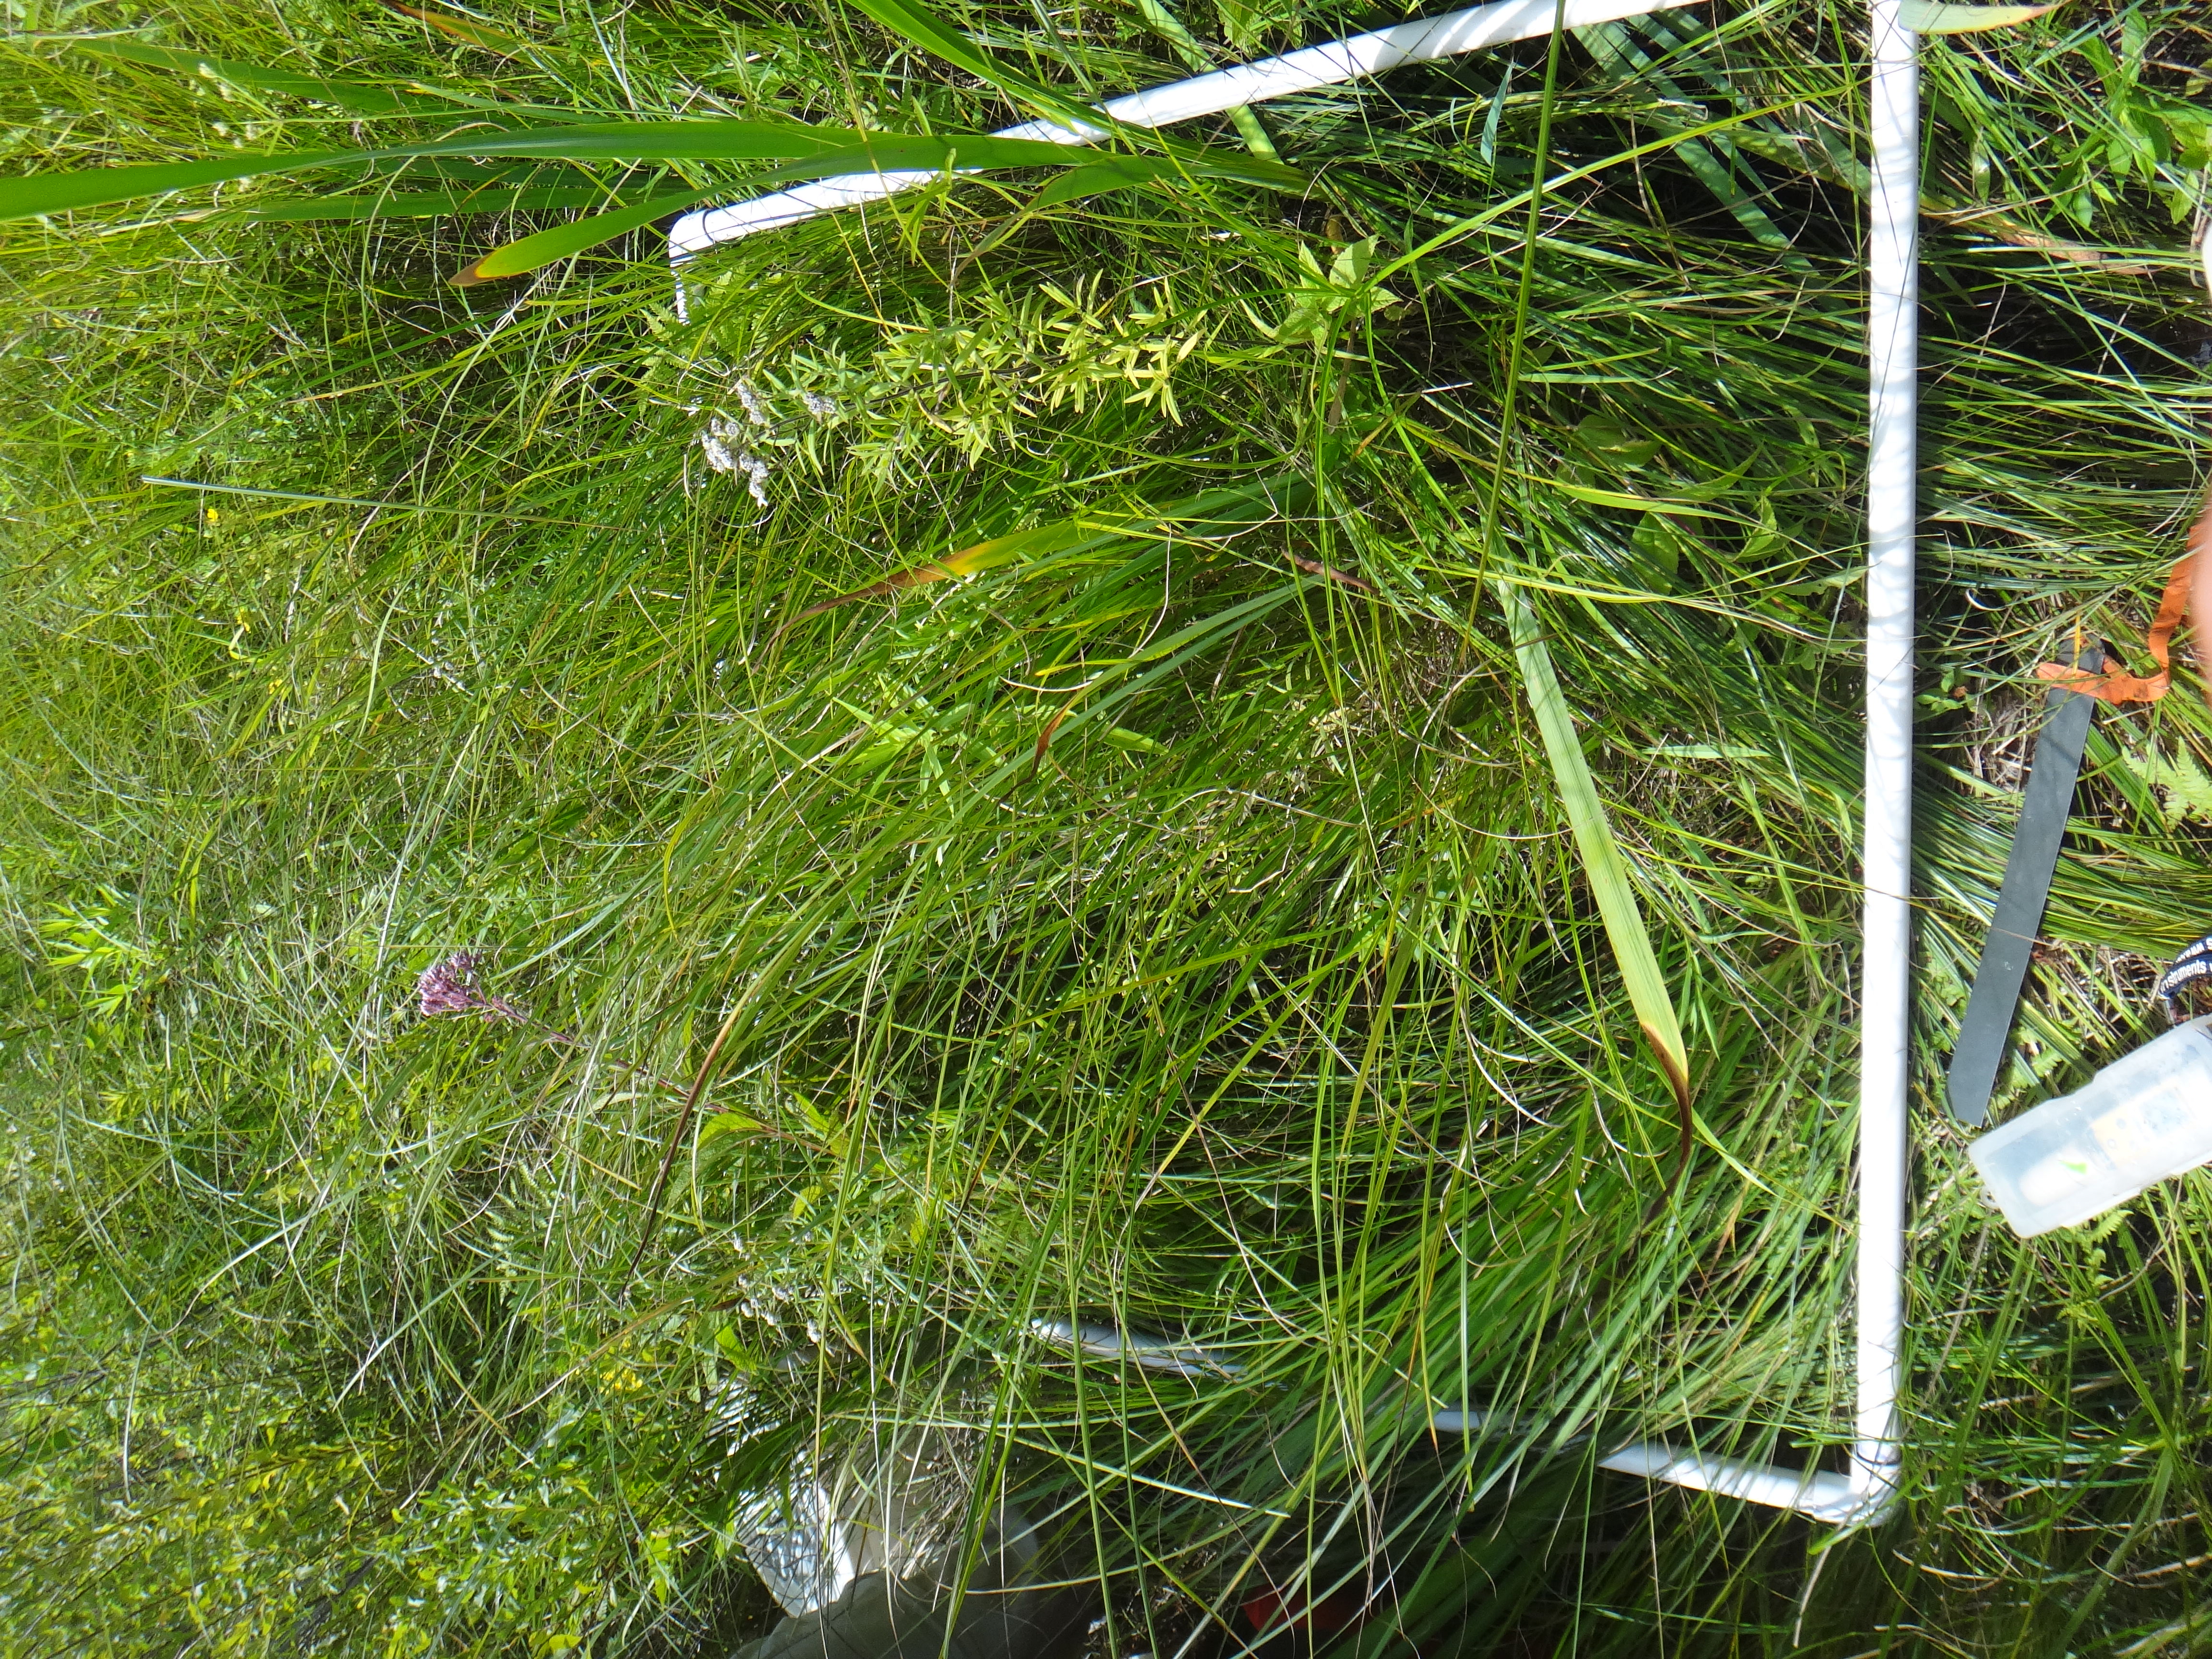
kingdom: Plantae
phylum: Tracheophyta
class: Magnoliopsida
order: Asterales
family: Asteraceae
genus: Solidago
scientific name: Solidago ohioensis
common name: Ohio goldenrod
